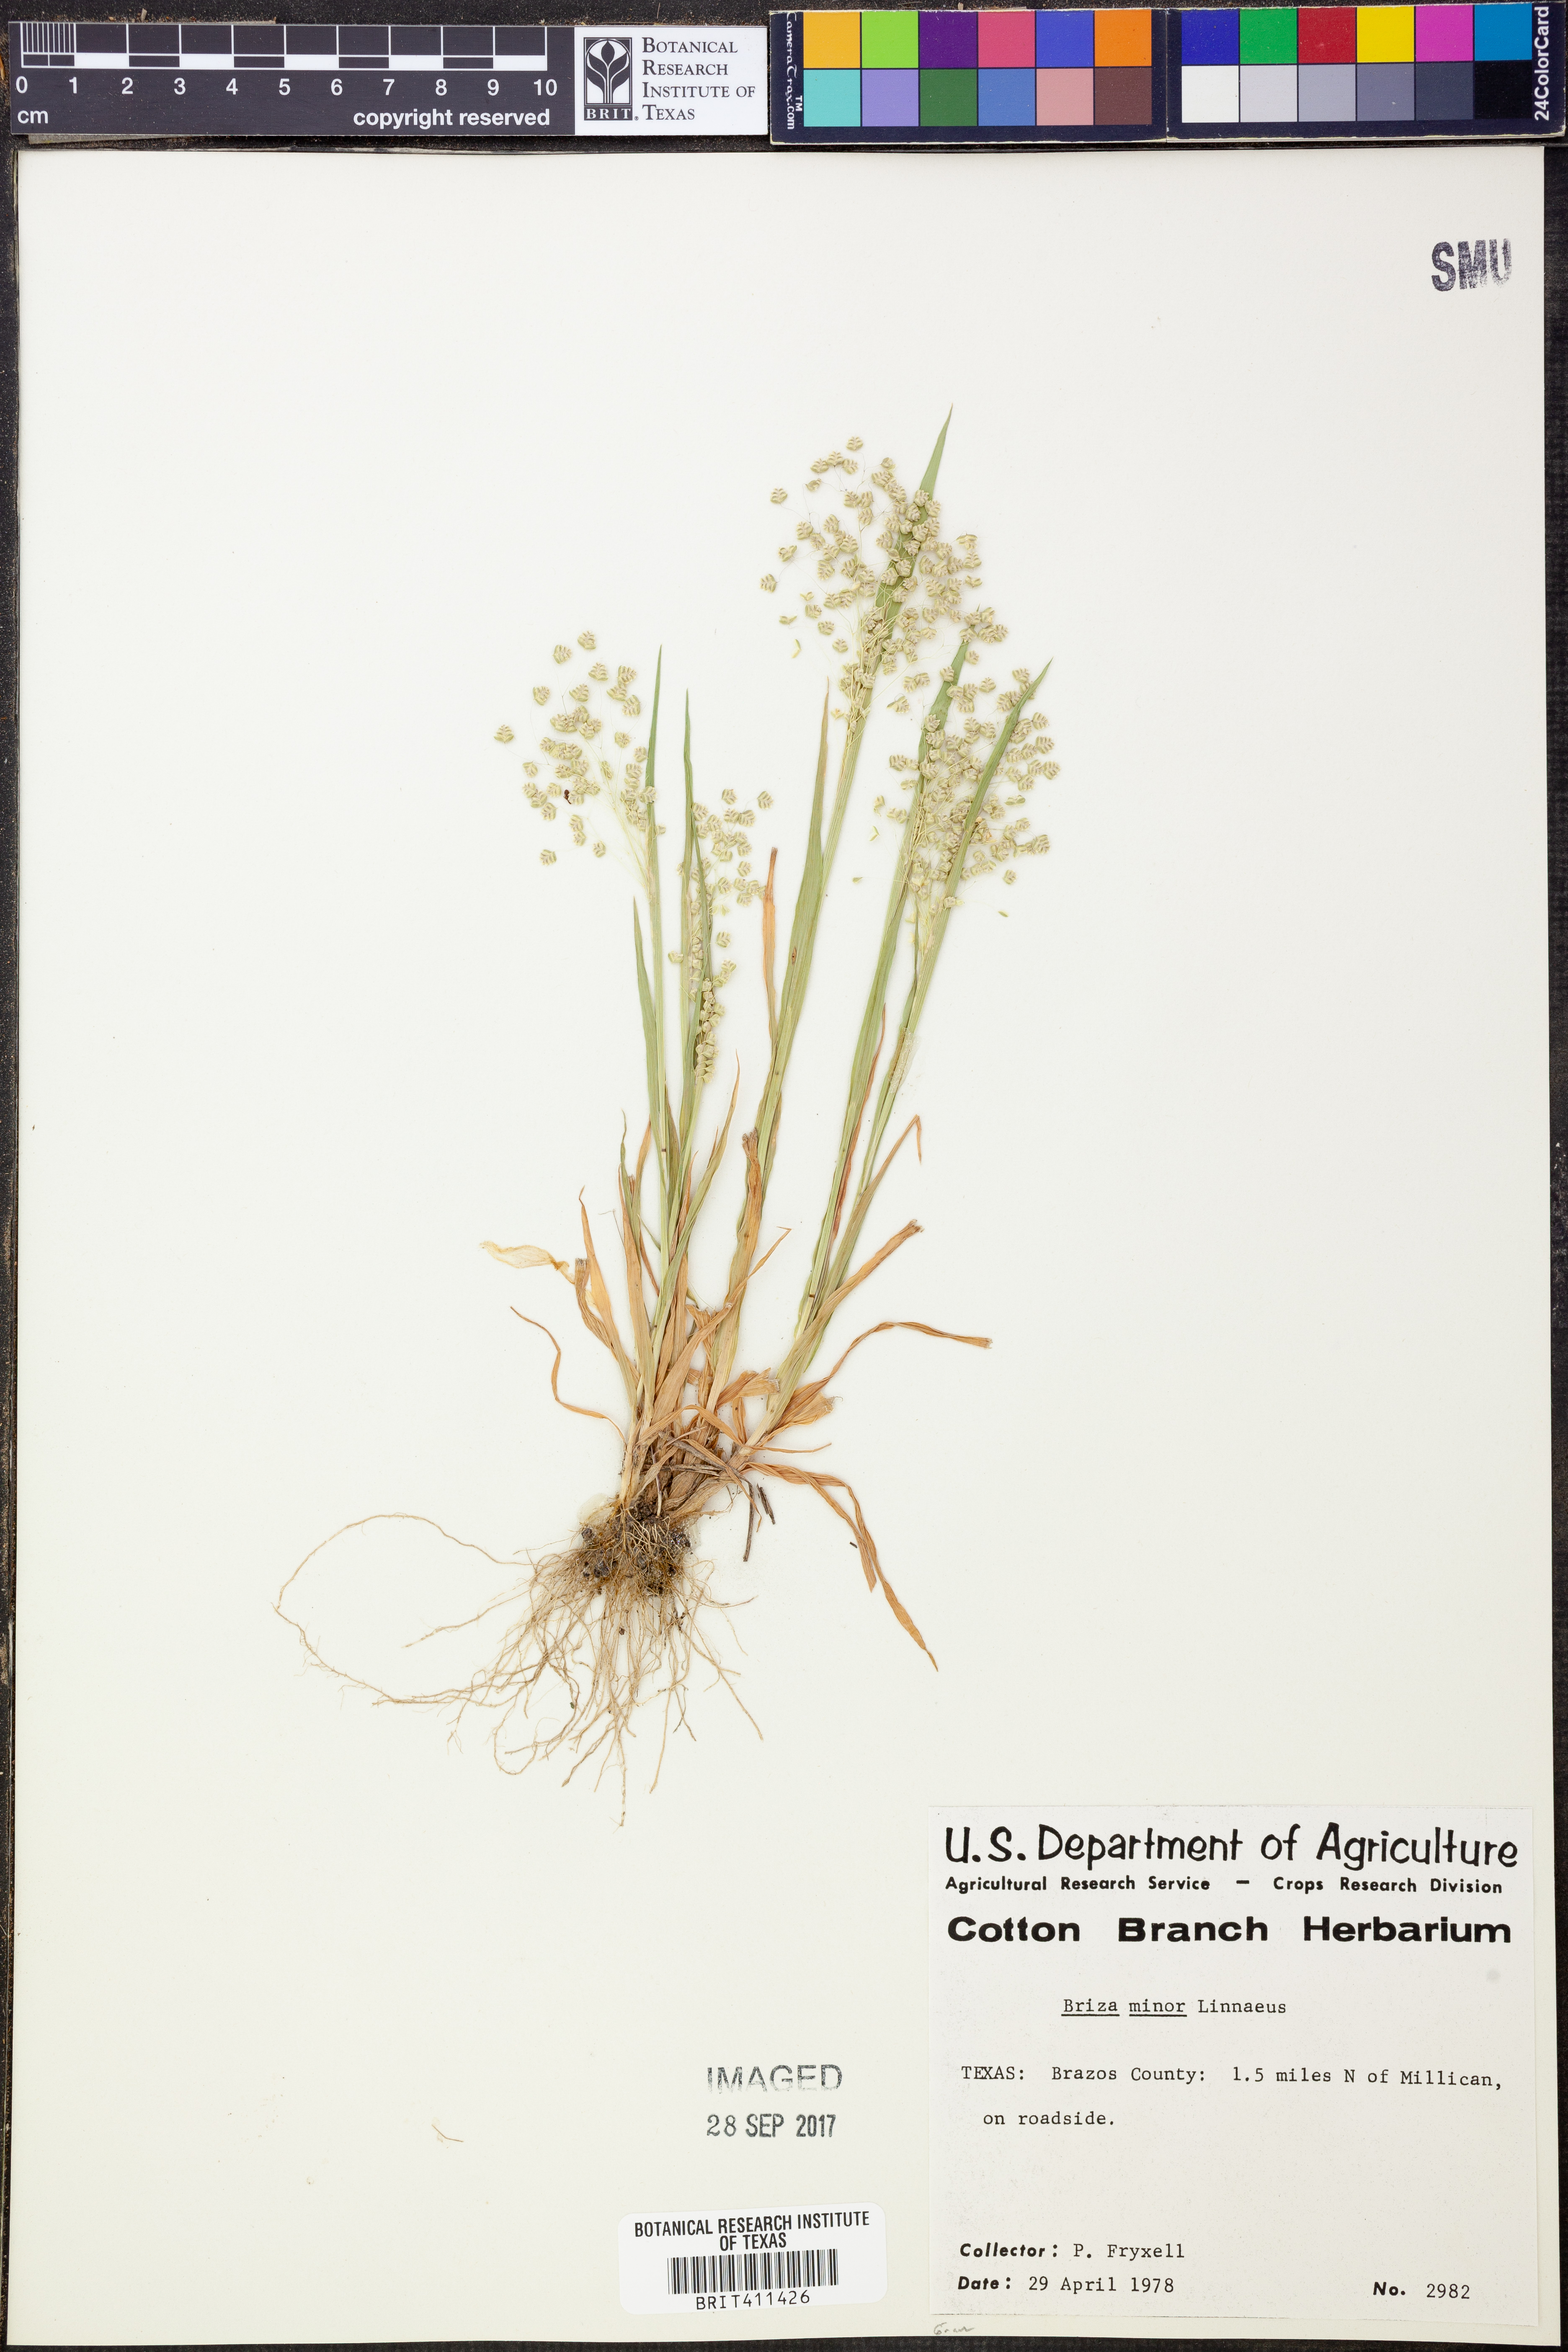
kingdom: Plantae
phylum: Tracheophyta
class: Liliopsida
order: Poales
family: Poaceae
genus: Briza
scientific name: Briza minor
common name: Lesser quaking-grass
